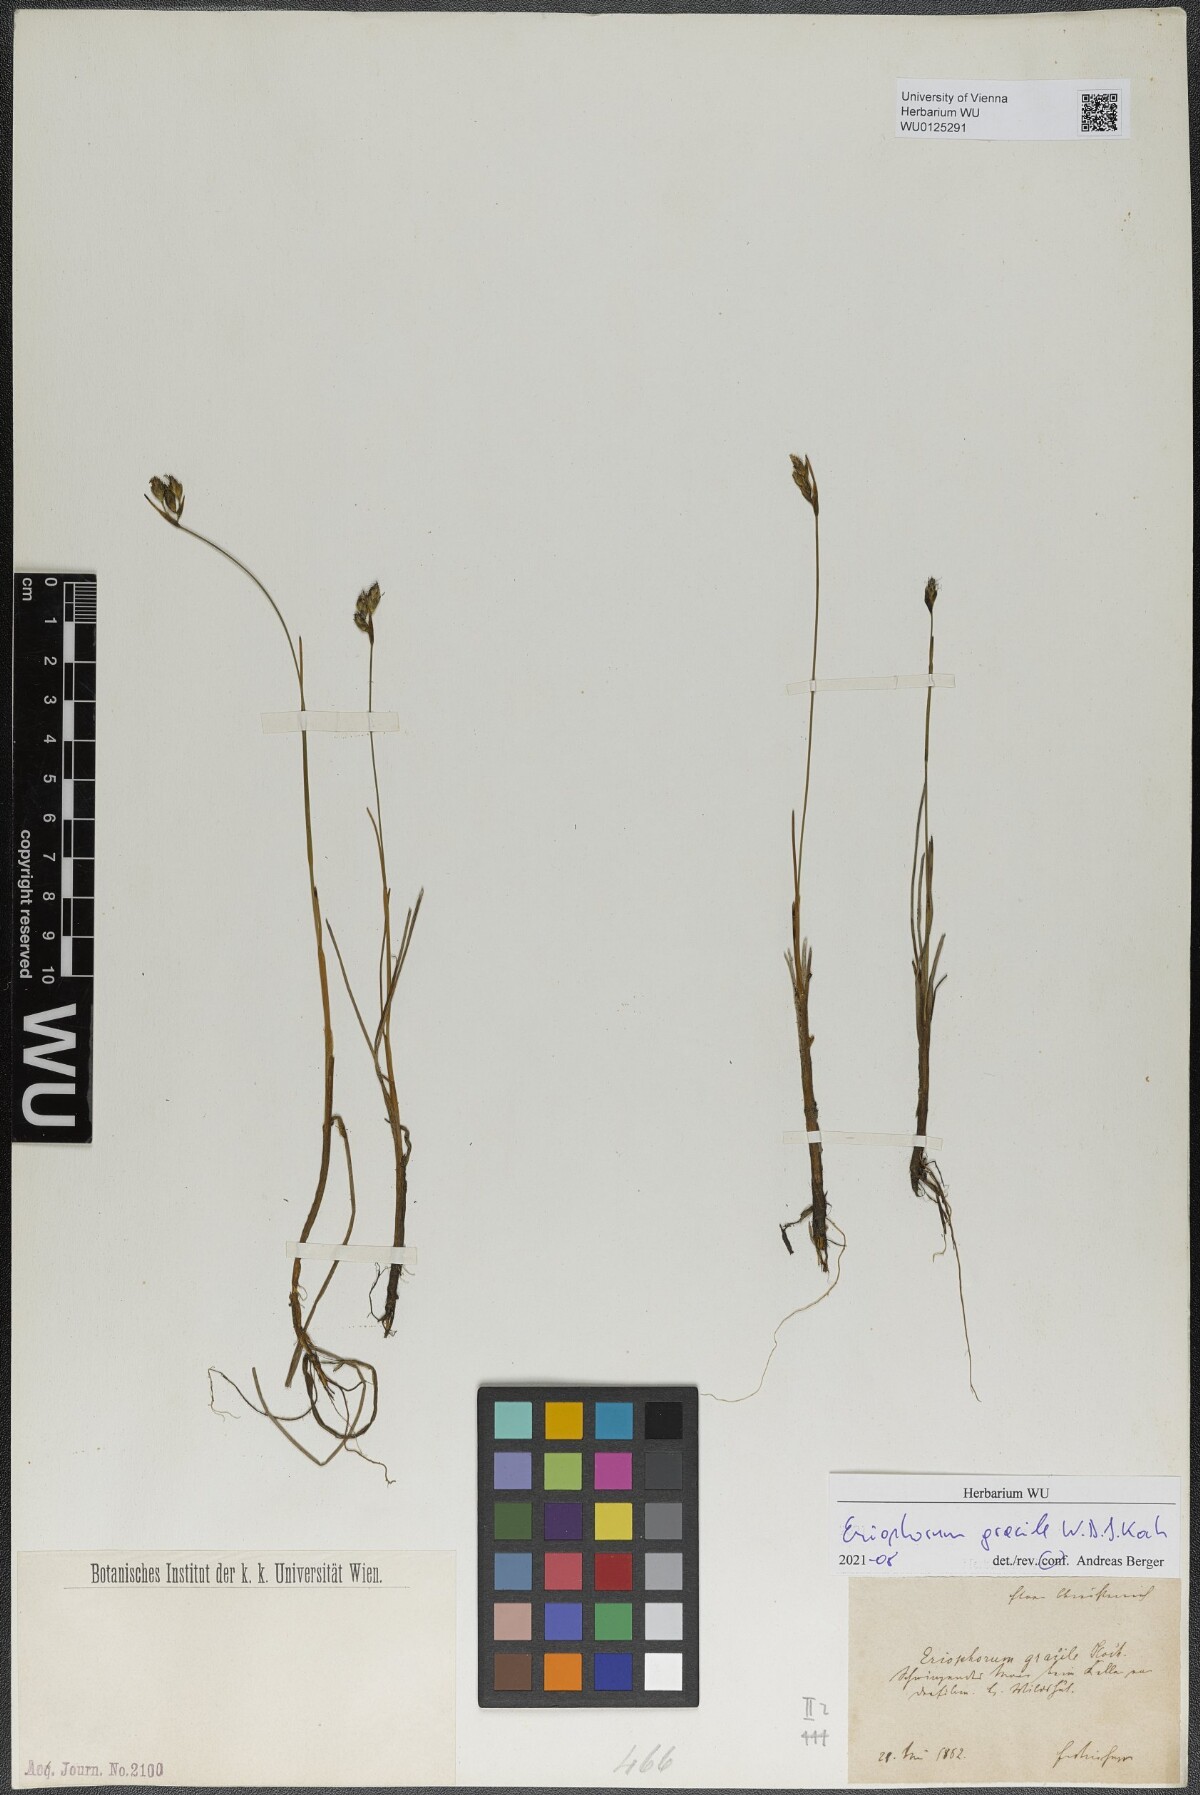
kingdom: Plantae
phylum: Tracheophyta
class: Liliopsida
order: Poales
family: Cyperaceae
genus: Eriophorum
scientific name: Eriophorum gracile
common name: Slender cottongrass
